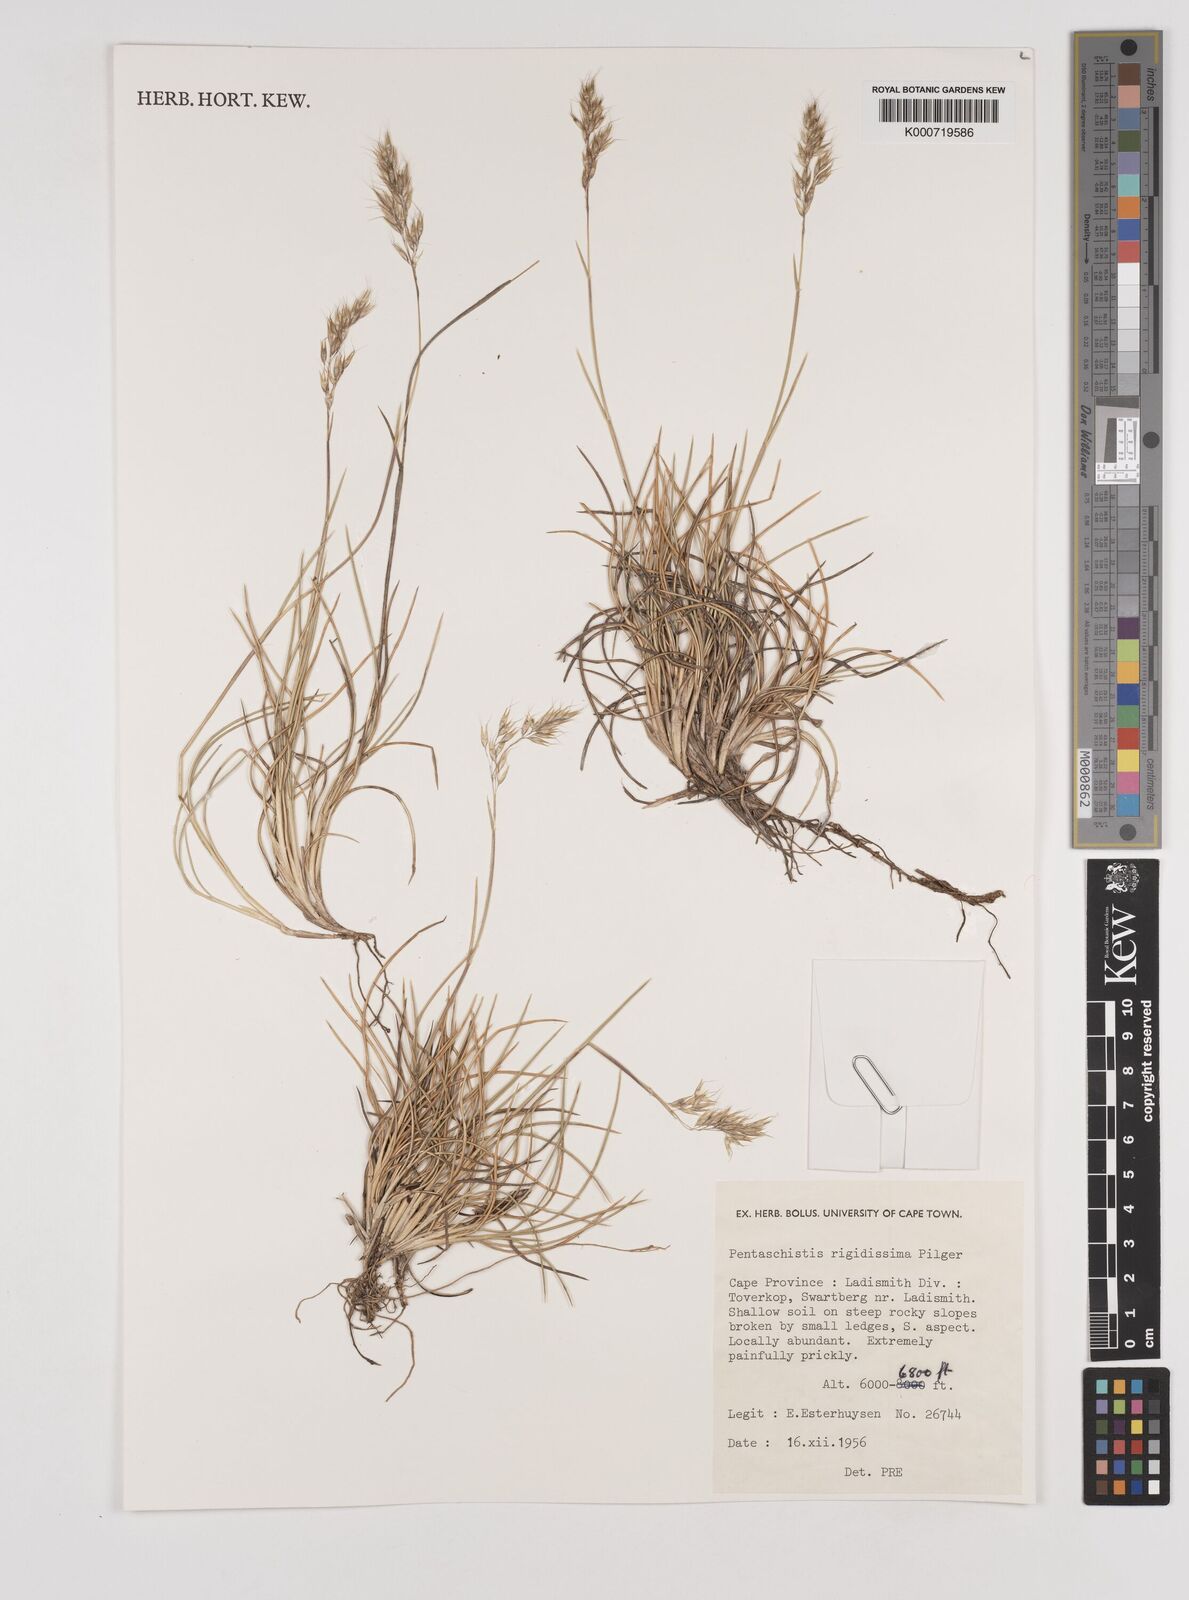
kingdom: Plantae
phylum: Tracheophyta
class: Liliopsida
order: Poales
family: Poaceae
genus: Pentameris
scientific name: Pentameris rigidissima
